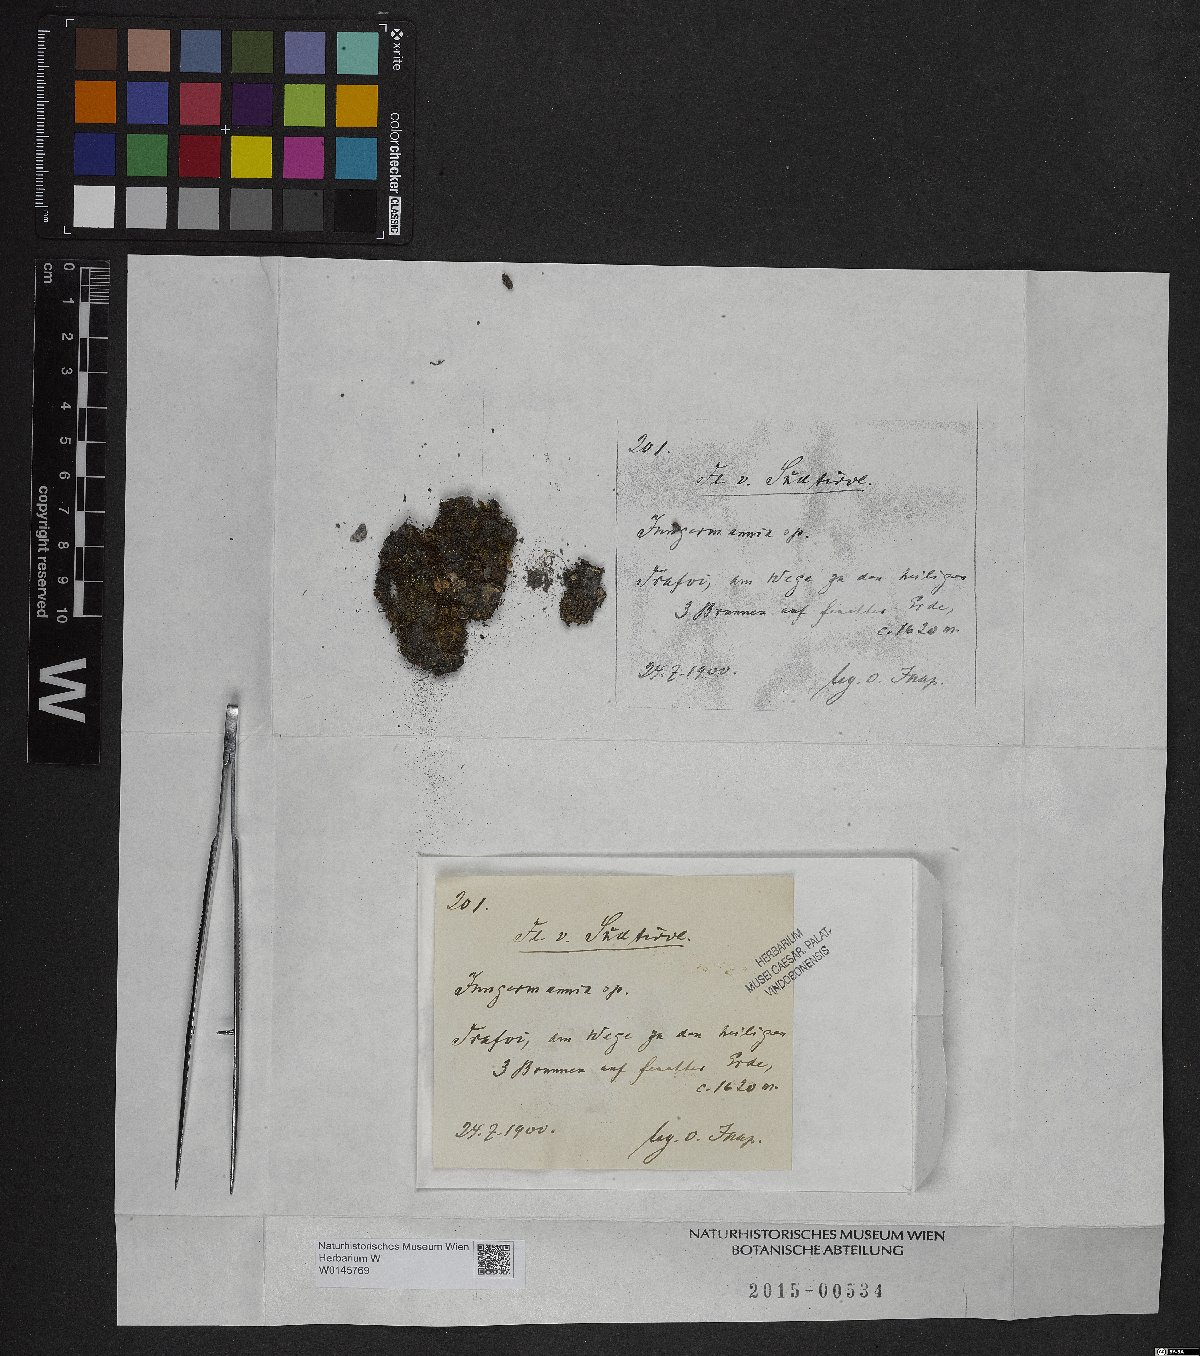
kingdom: Plantae
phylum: Marchantiophyta
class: Jungermanniopsida
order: Jungermanniales
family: Jungermanniaceae
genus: Jungermannia
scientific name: Jungermannia
